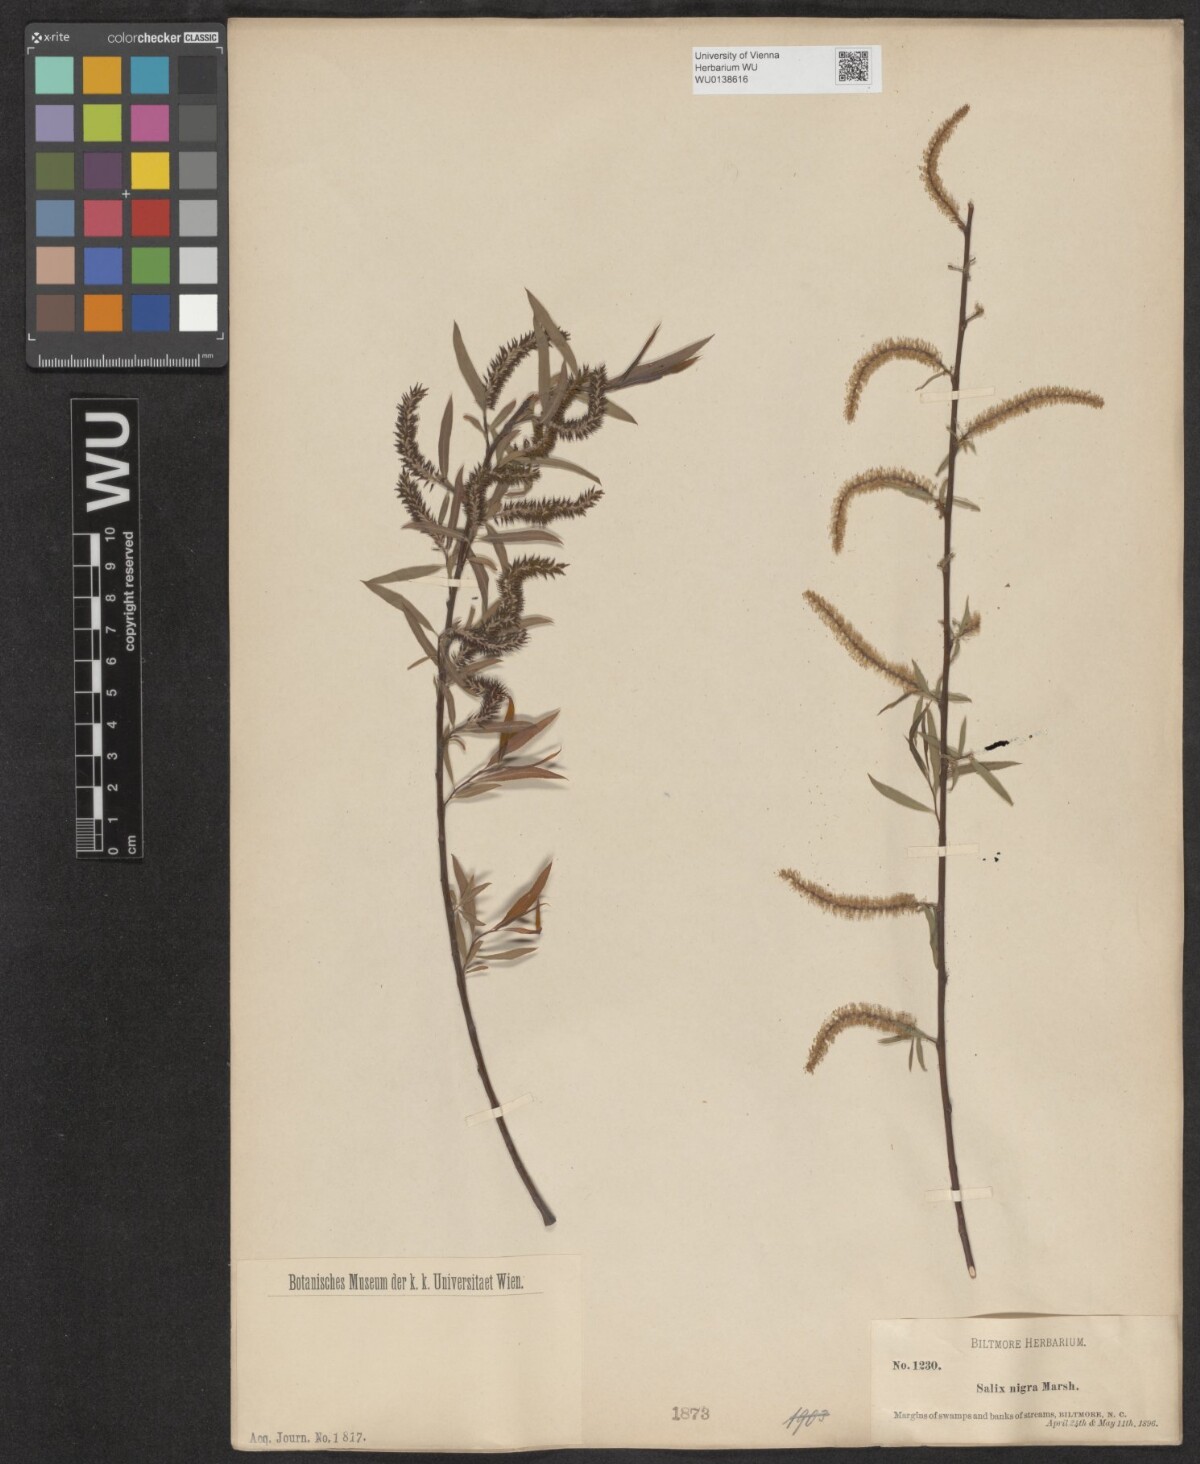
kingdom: Plantae
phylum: Tracheophyta
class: Magnoliopsida
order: Malpighiales
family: Salicaceae
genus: Salix
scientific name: Salix nigra
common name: Black willow
